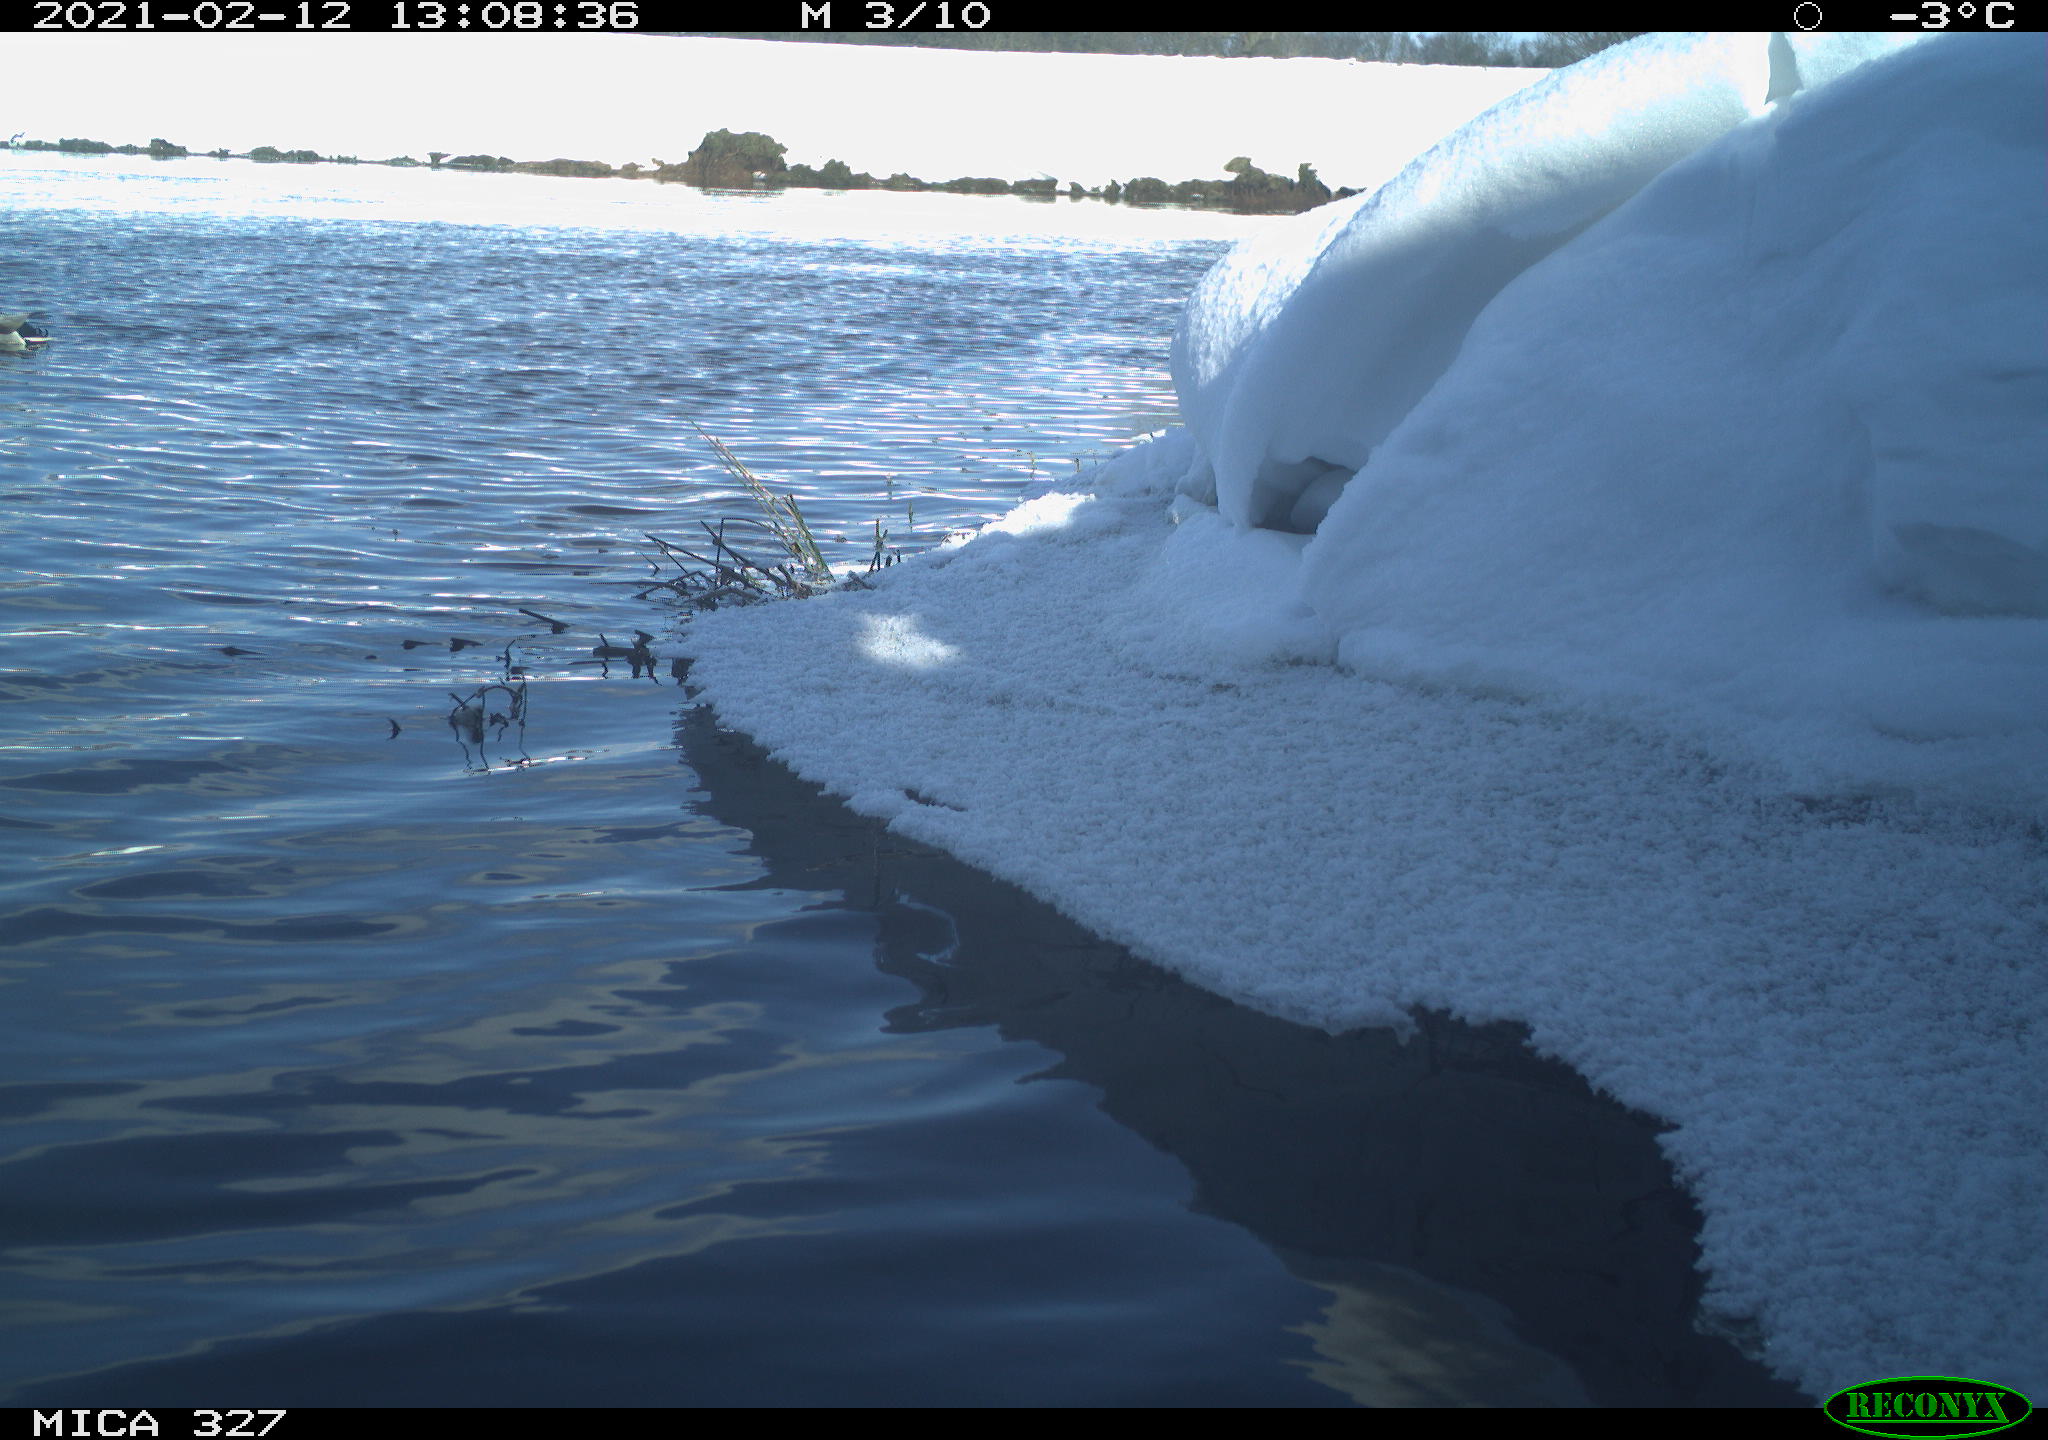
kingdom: Animalia
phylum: Chordata
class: Aves
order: Anseriformes
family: Anatidae
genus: Anas
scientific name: Anas
